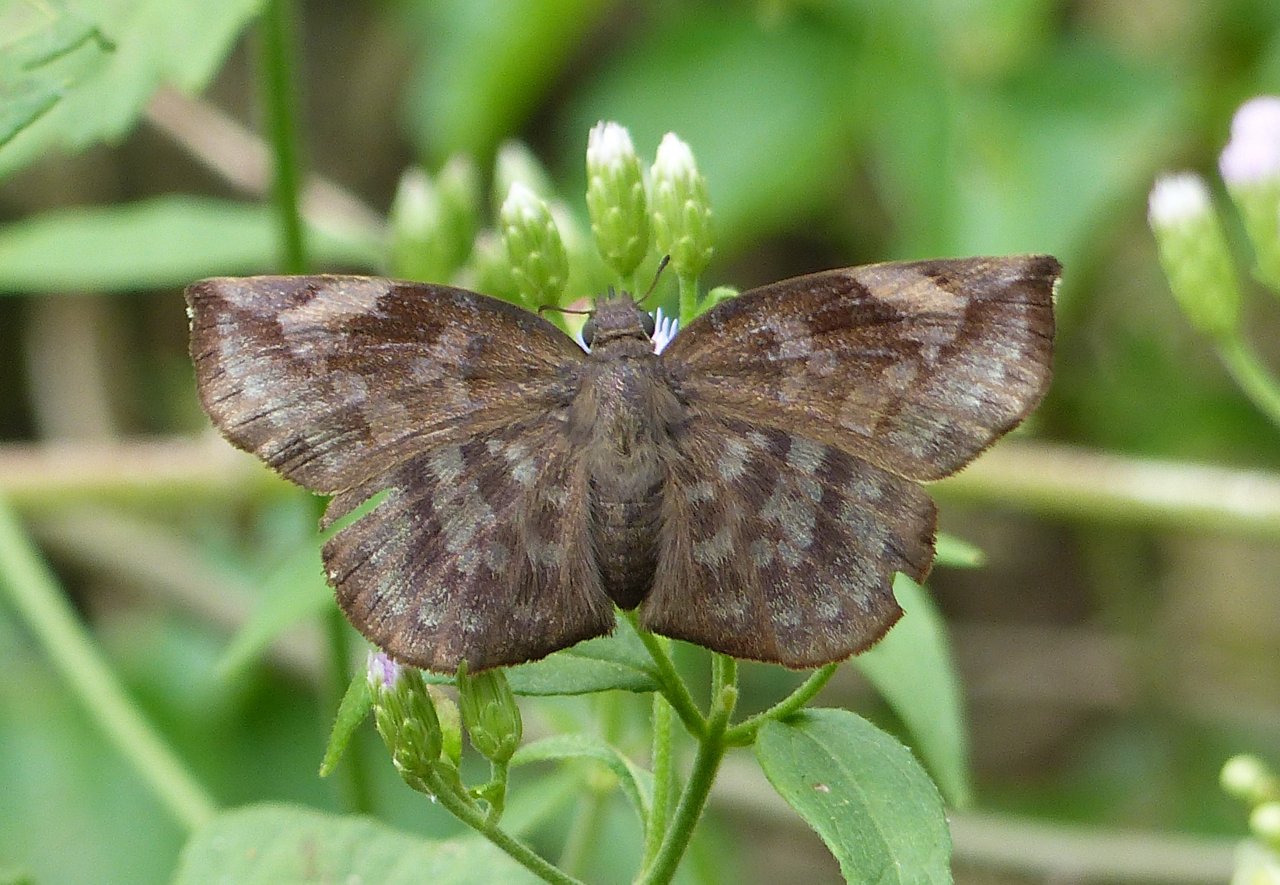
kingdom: Animalia
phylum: Arthropoda
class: Insecta
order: Lepidoptera
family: Hesperiidae
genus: Achlyodes
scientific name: Achlyodes thraso
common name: Sickle-winged Skipper
